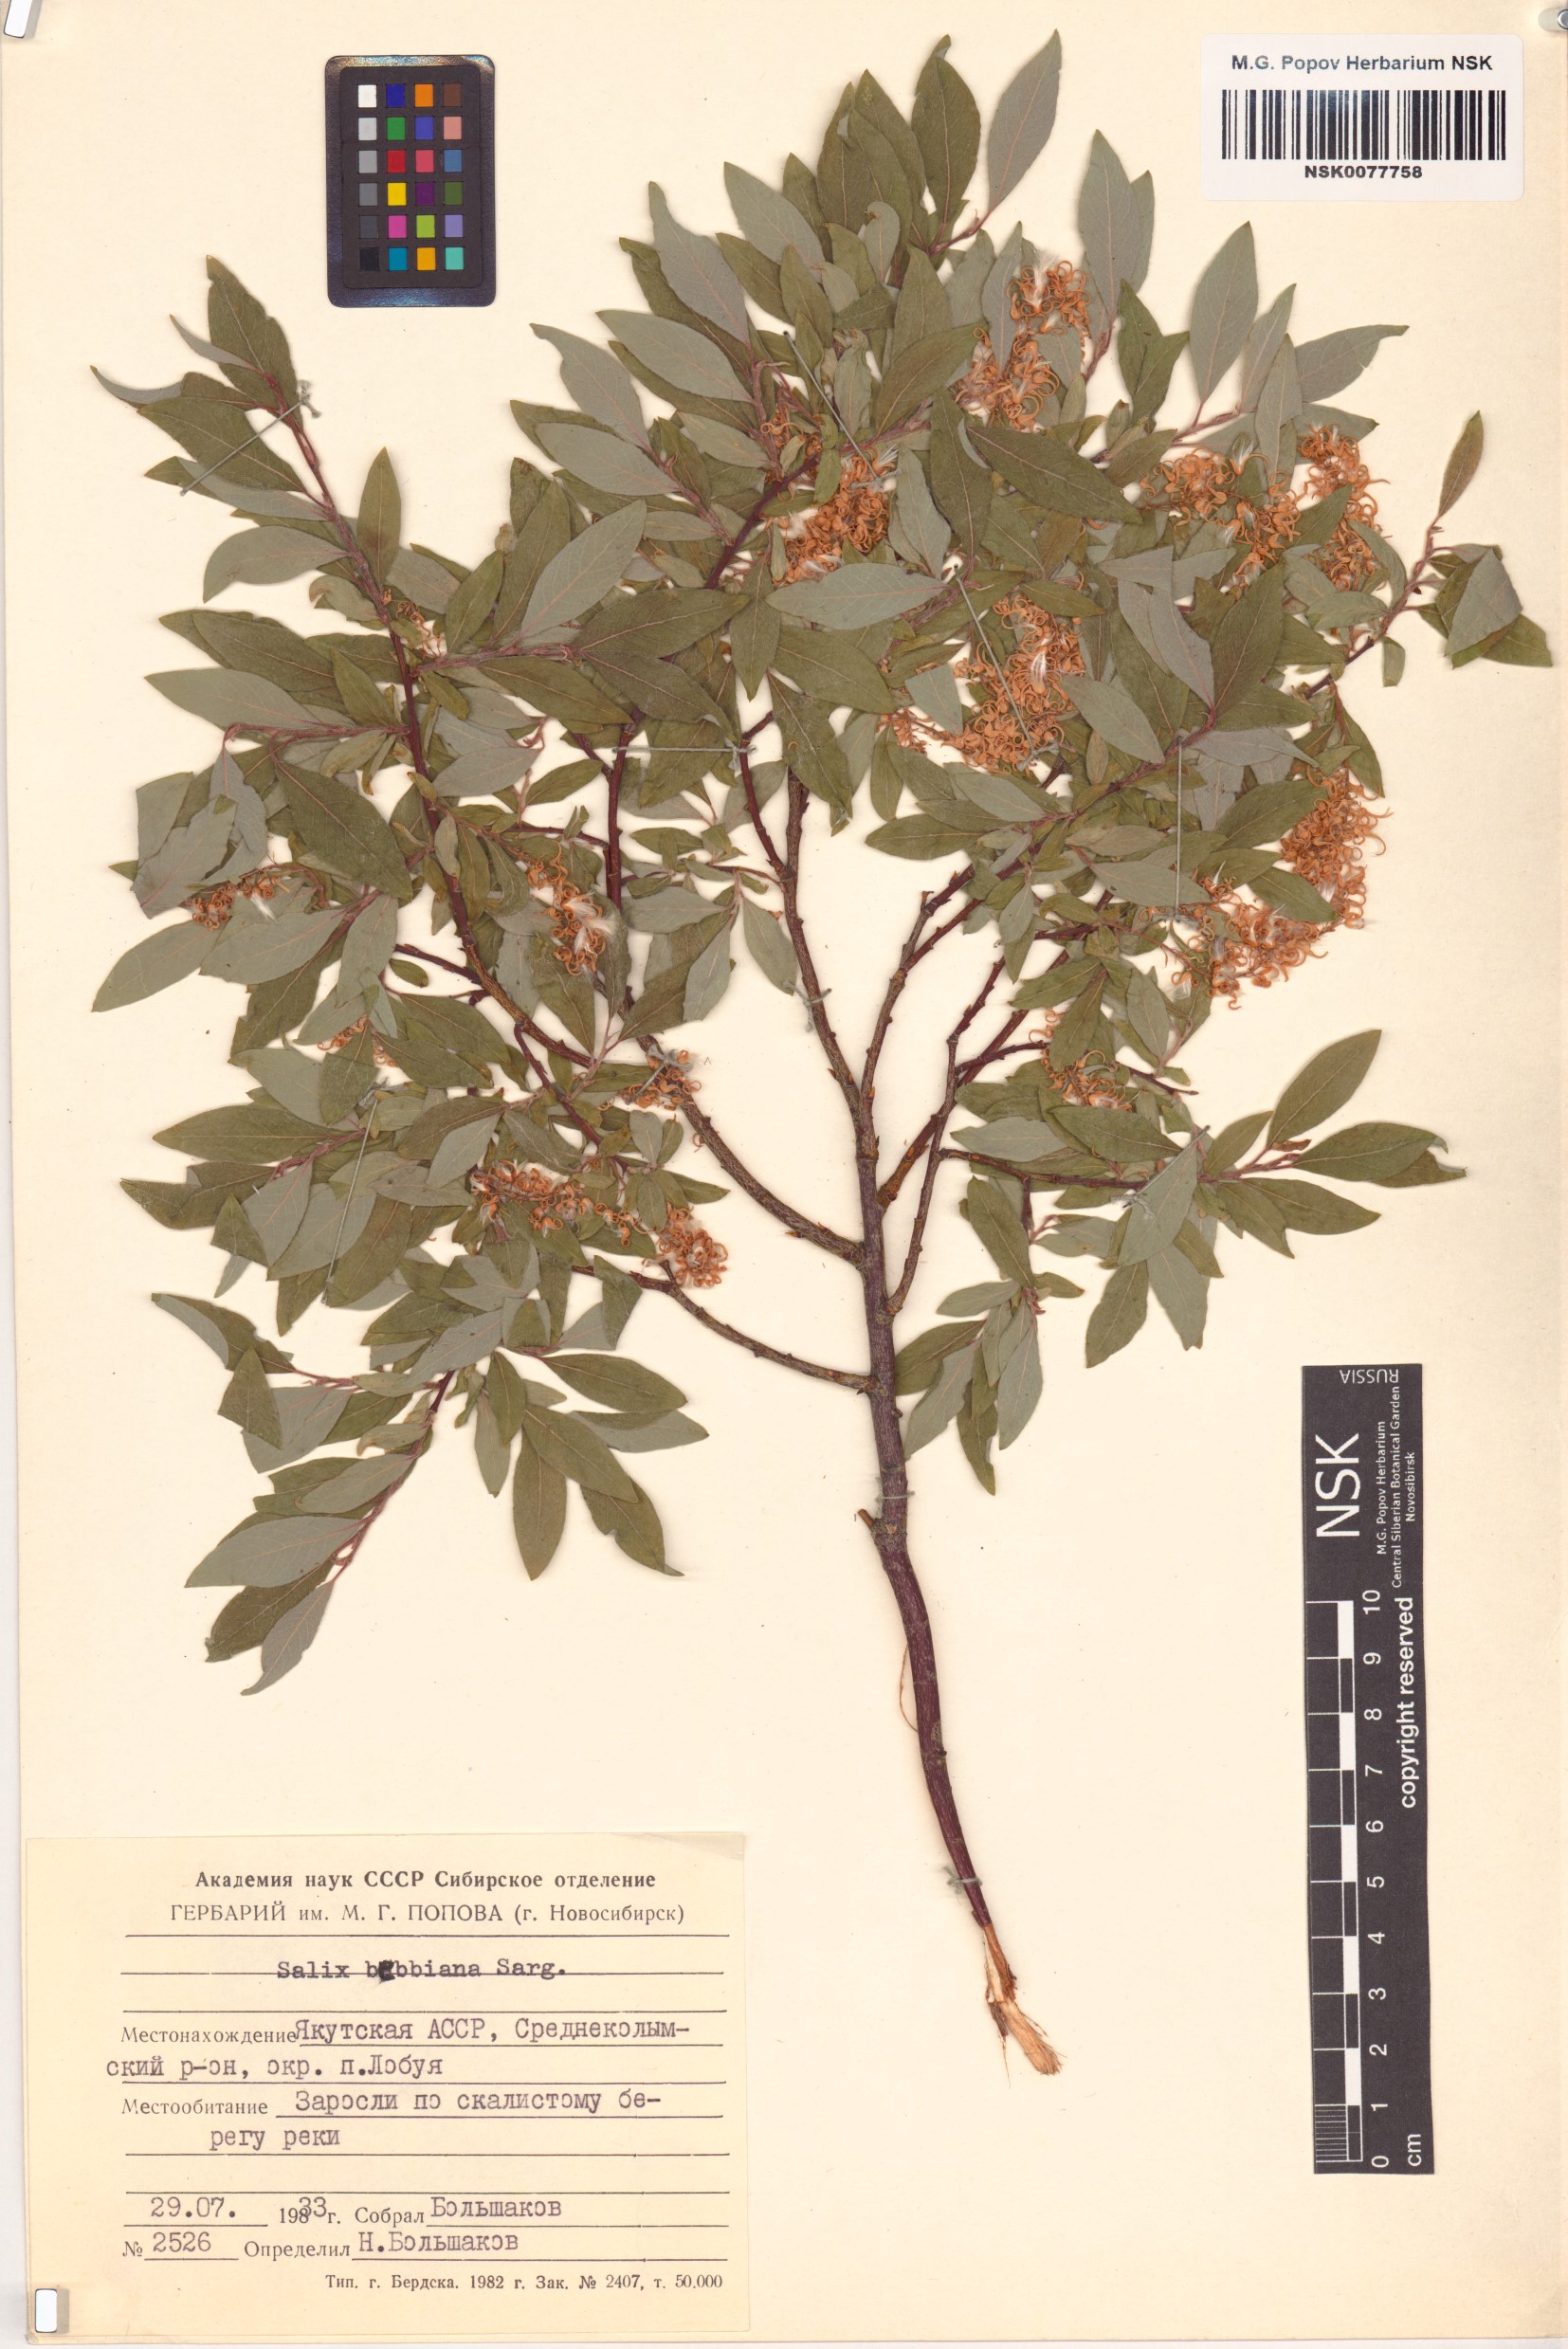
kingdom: Plantae
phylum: Tracheophyta
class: Magnoliopsida
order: Malpighiales
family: Salicaceae
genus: Salix
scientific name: Salix bebbiana
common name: Bebb's willow
